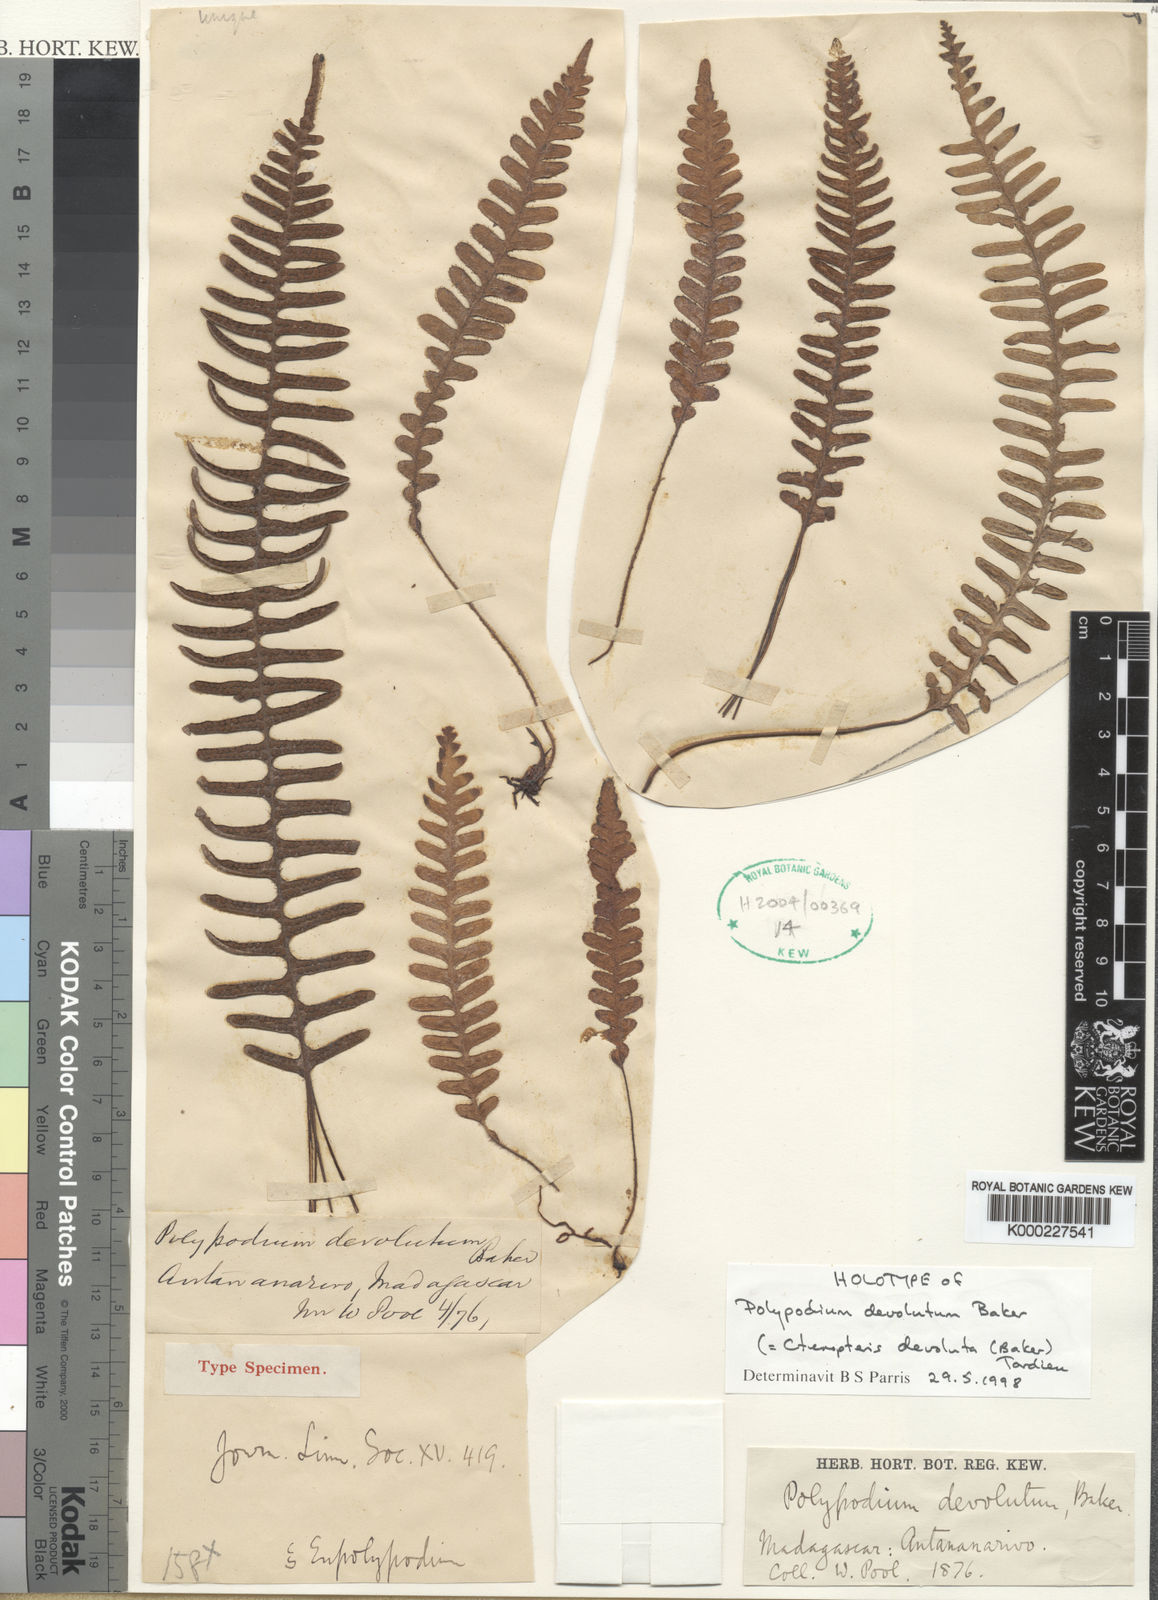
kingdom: Plantae
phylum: Tracheophyta
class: Polypodiopsida
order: Polypodiales
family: Polypodiaceae
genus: Enterosora
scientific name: Enterosora devoluta
